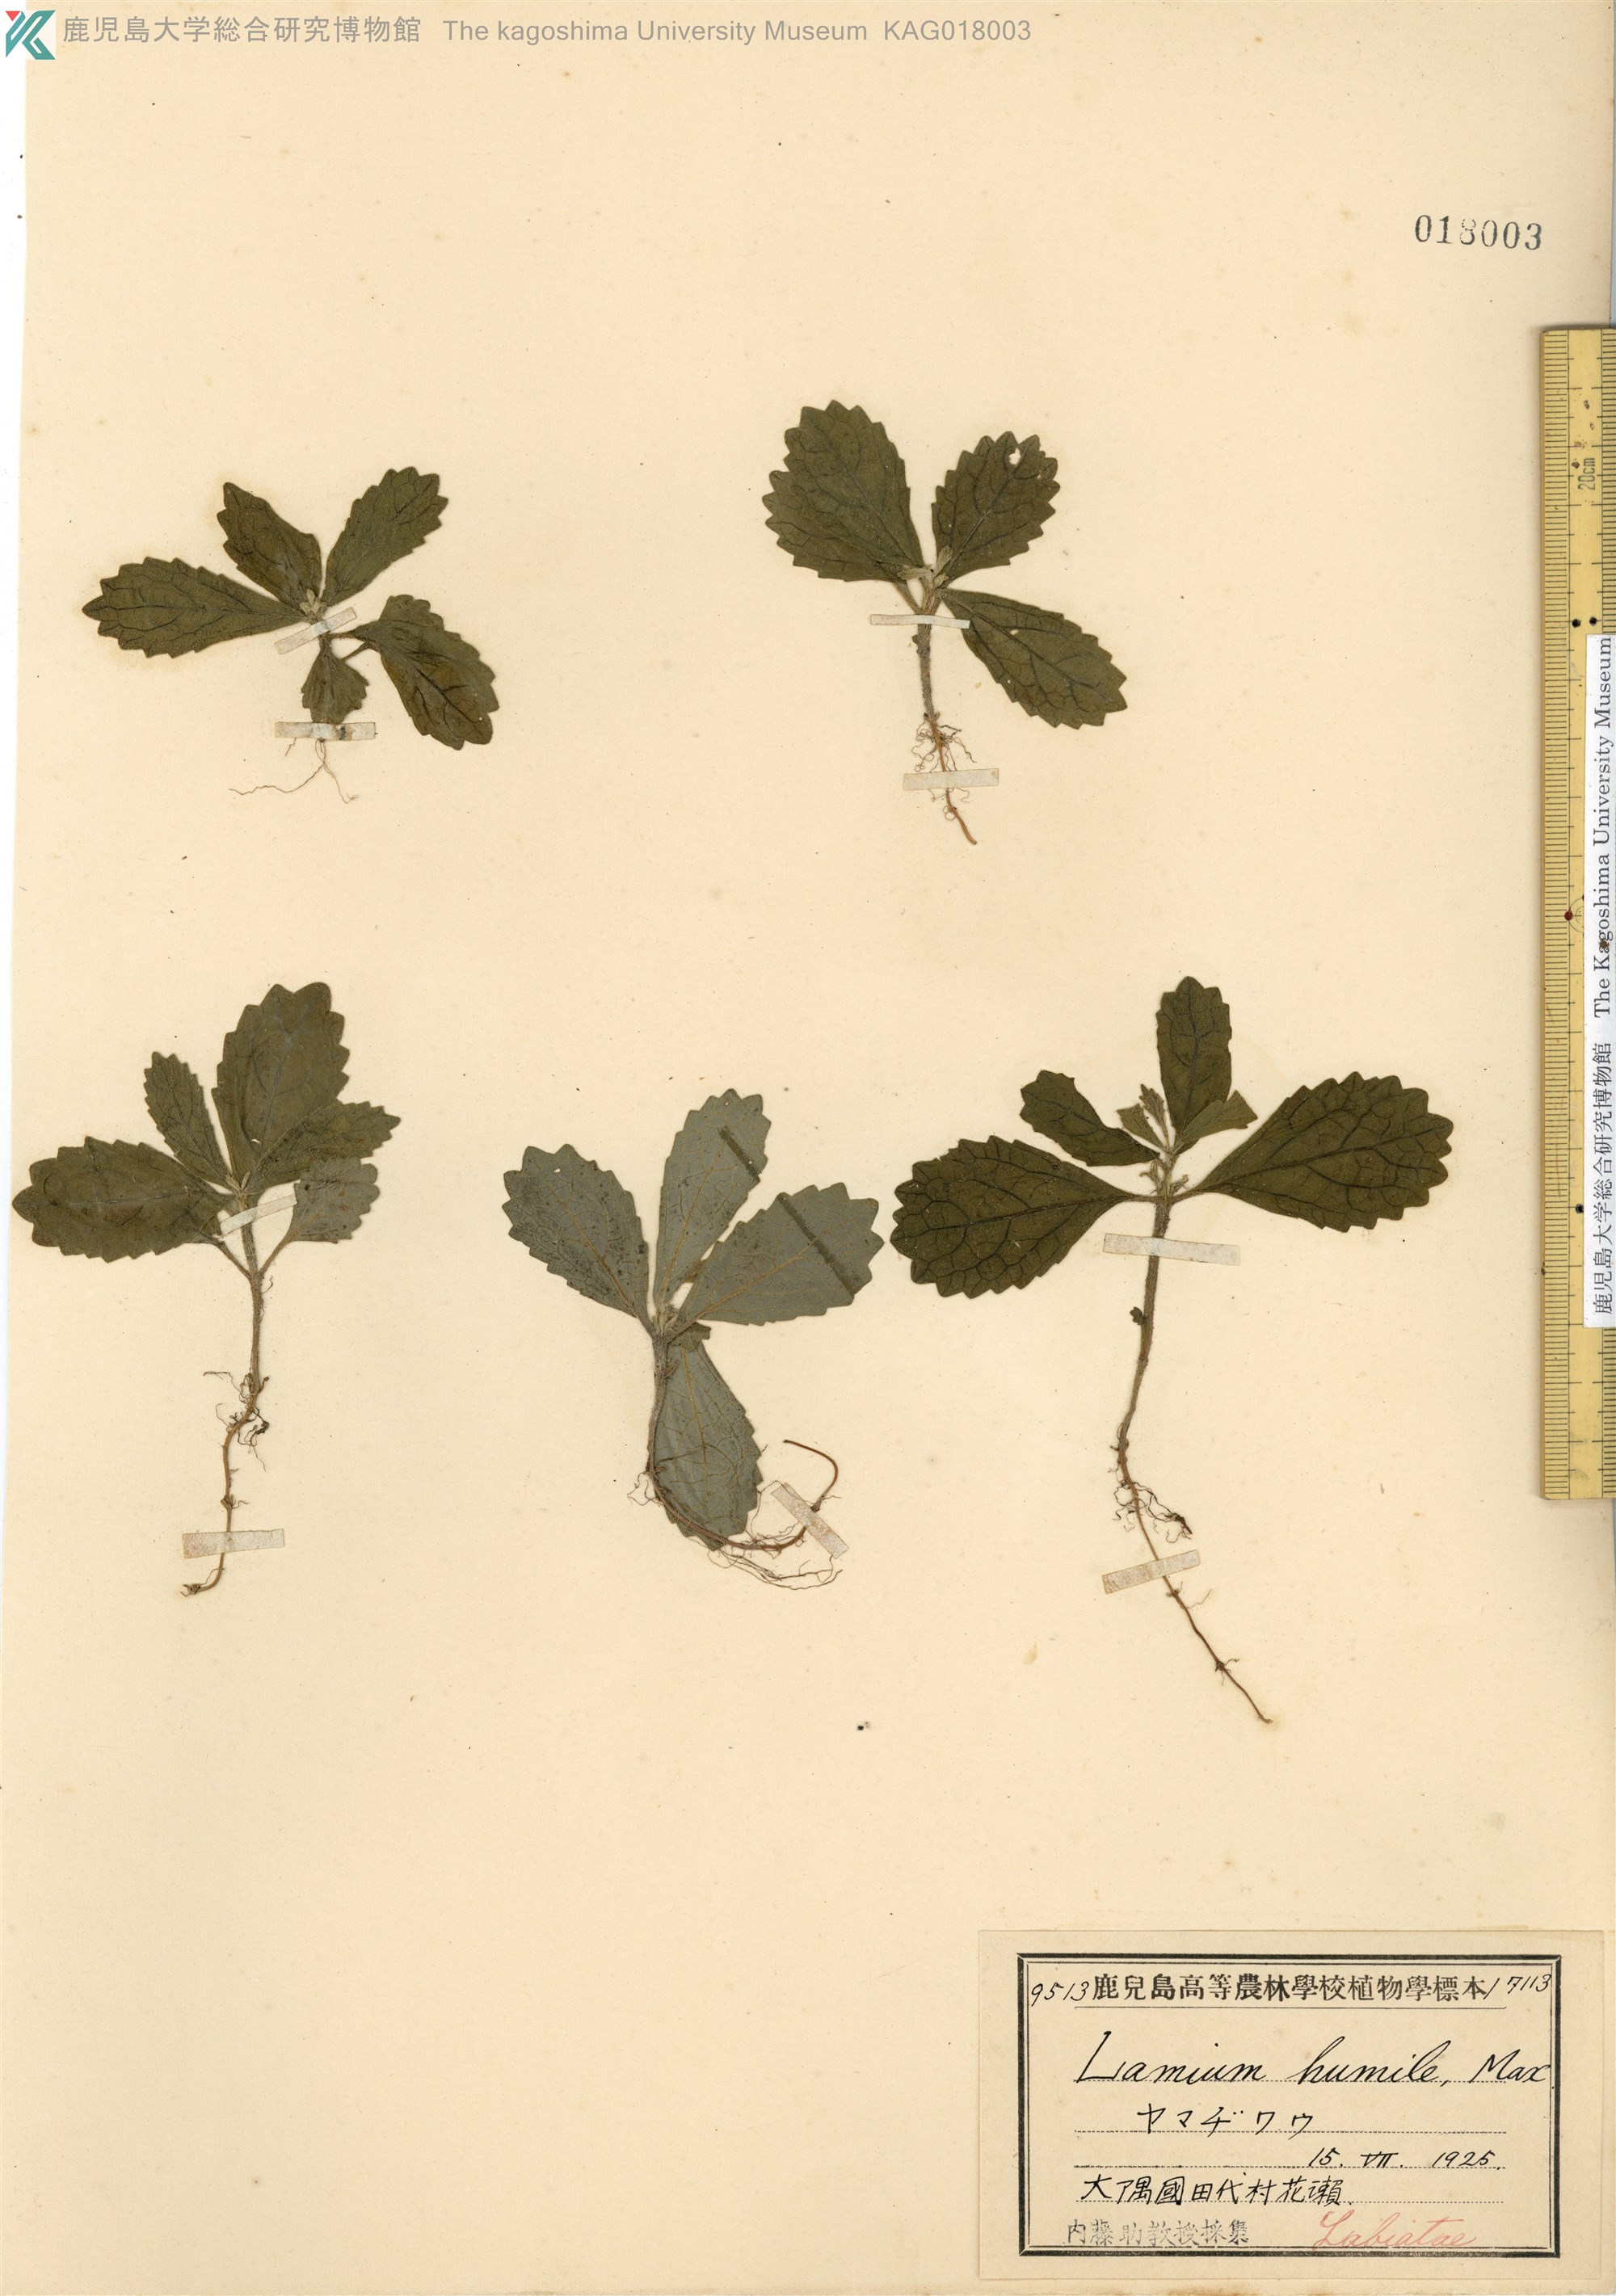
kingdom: Plantae
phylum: Tracheophyta
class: Magnoliopsida
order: Lamiales
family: Lamiaceae
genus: Ajugoides
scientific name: Ajugoides humilis
